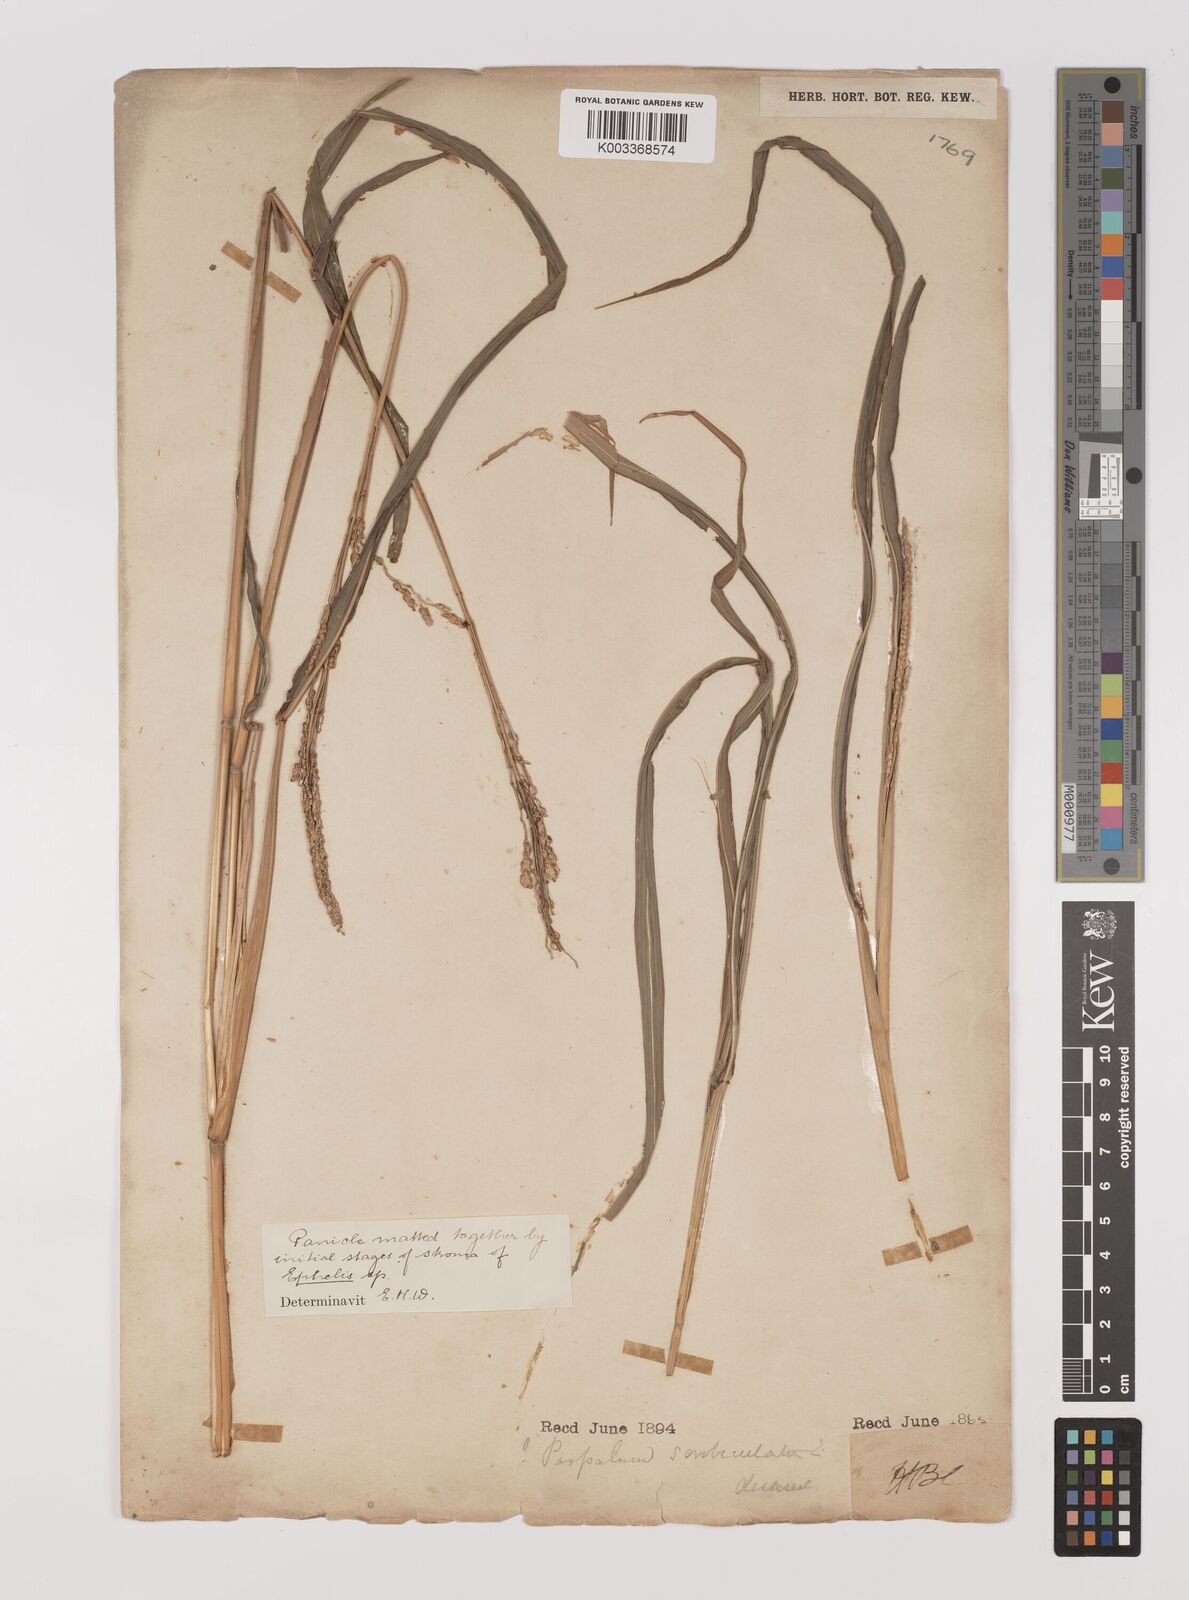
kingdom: Plantae
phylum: Tracheophyta
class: Liliopsida
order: Poales
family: Poaceae
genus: Panicum
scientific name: Panicum sumatrense
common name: Little millet
